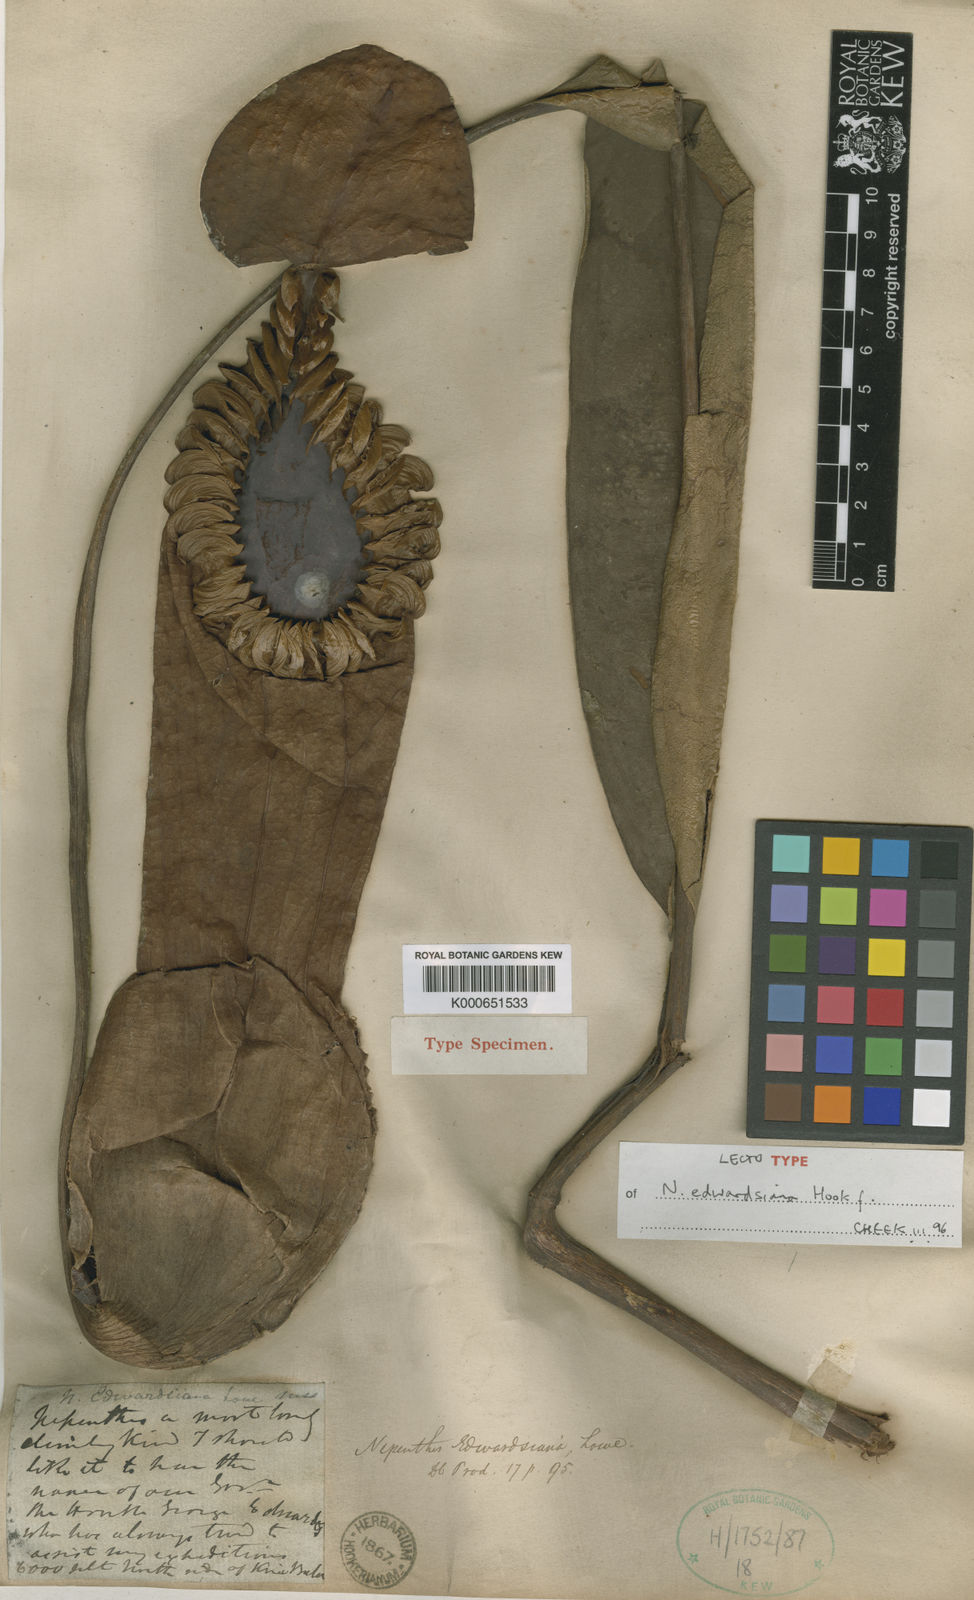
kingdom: Plantae
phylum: Tracheophyta
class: Magnoliopsida
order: Caryophyllales
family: Nepenthaceae
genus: Nepenthes
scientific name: Nepenthes edwardsiana
